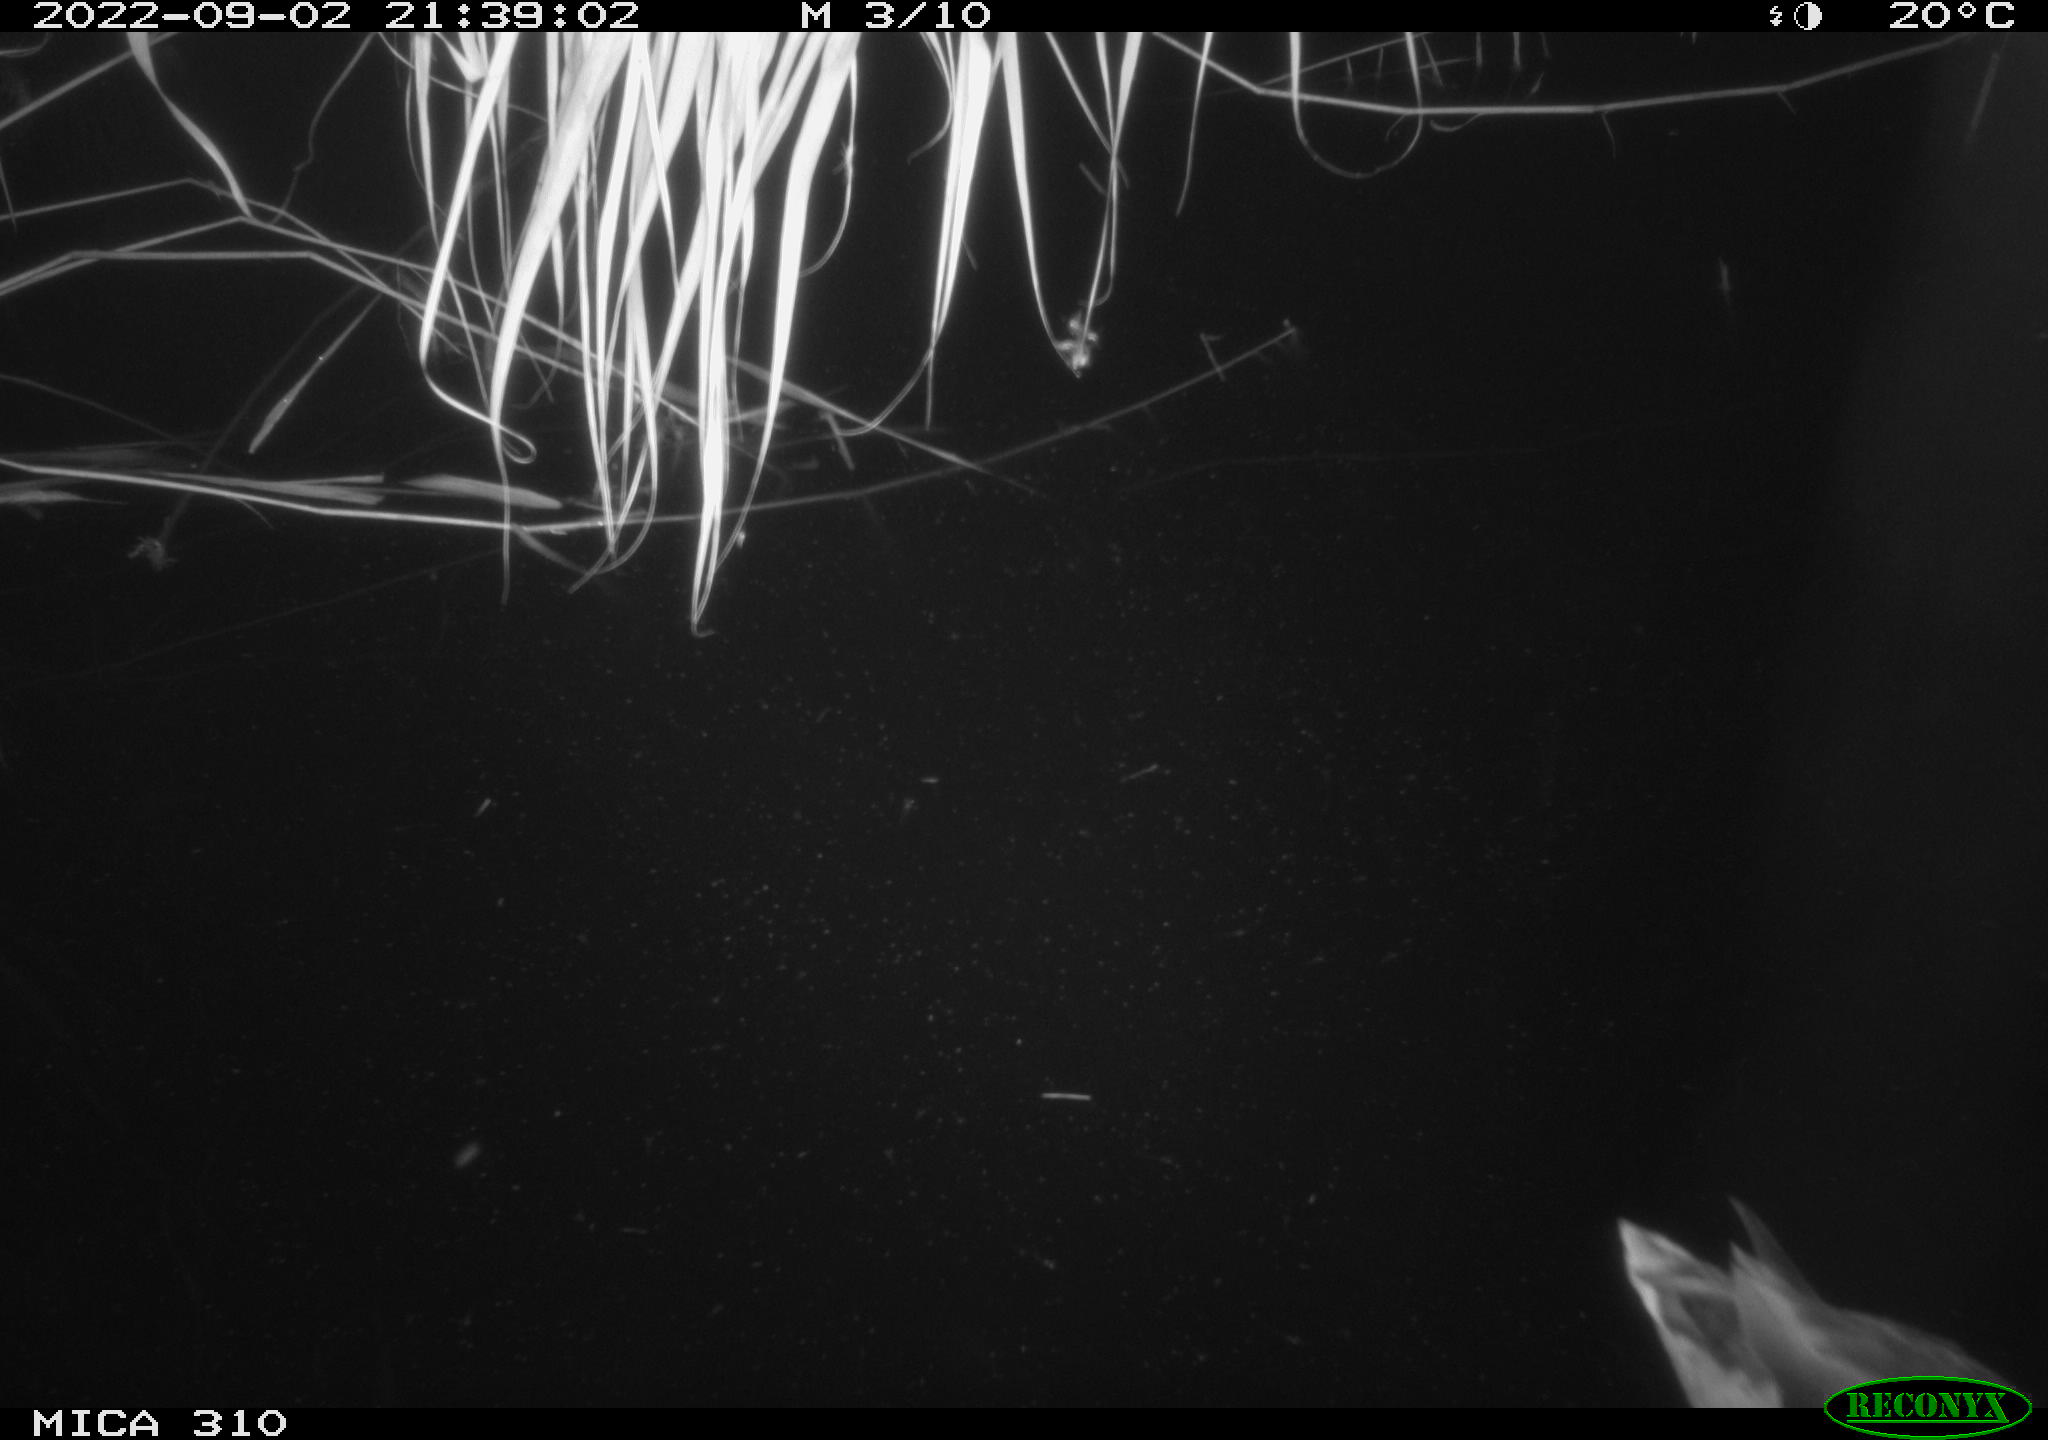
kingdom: Animalia
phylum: Chordata
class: Aves
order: Anseriformes
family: Anatidae
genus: Anas
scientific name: Anas platyrhynchos
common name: Mallard
